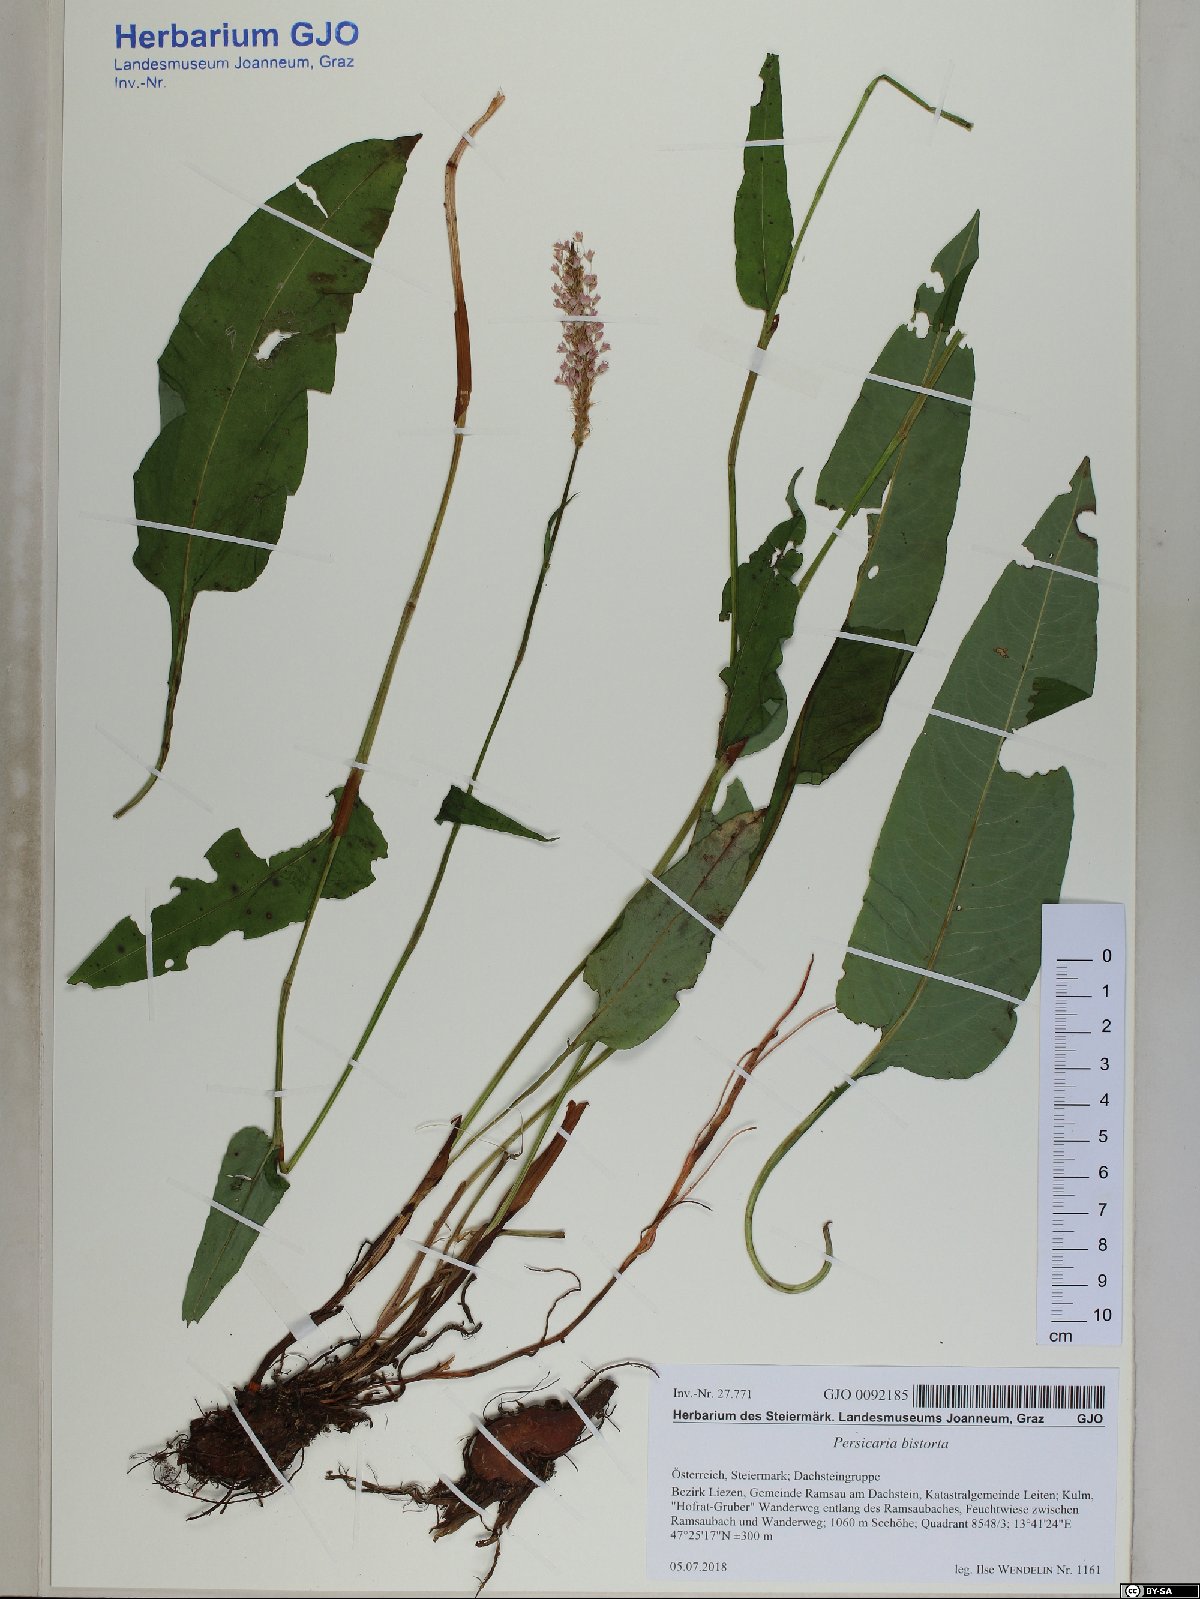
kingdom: Plantae
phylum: Tracheophyta
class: Magnoliopsida
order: Caryophyllales
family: Polygonaceae
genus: Bistorta
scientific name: Bistorta officinalis
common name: Common bistort
